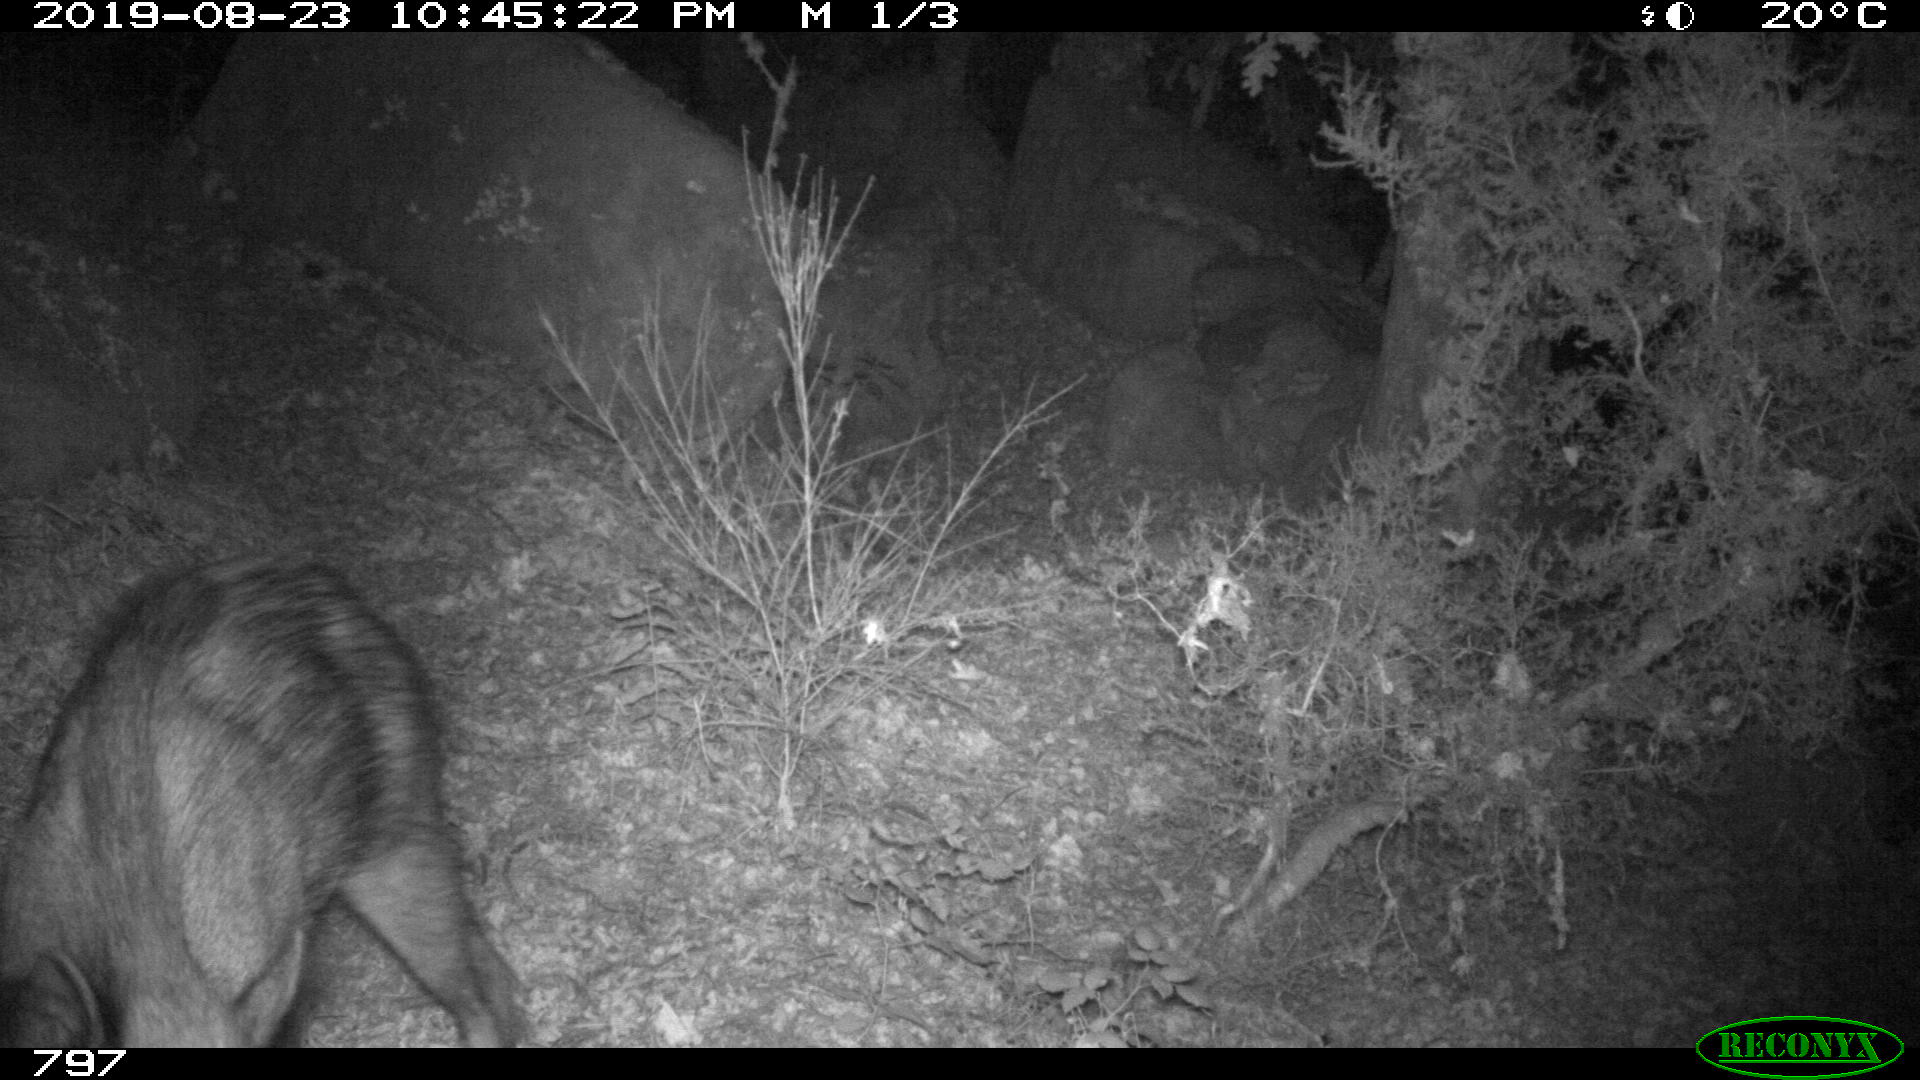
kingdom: Animalia
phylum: Chordata
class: Mammalia
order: Artiodactyla
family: Suidae
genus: Sus
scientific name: Sus scrofa
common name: Wild boar
